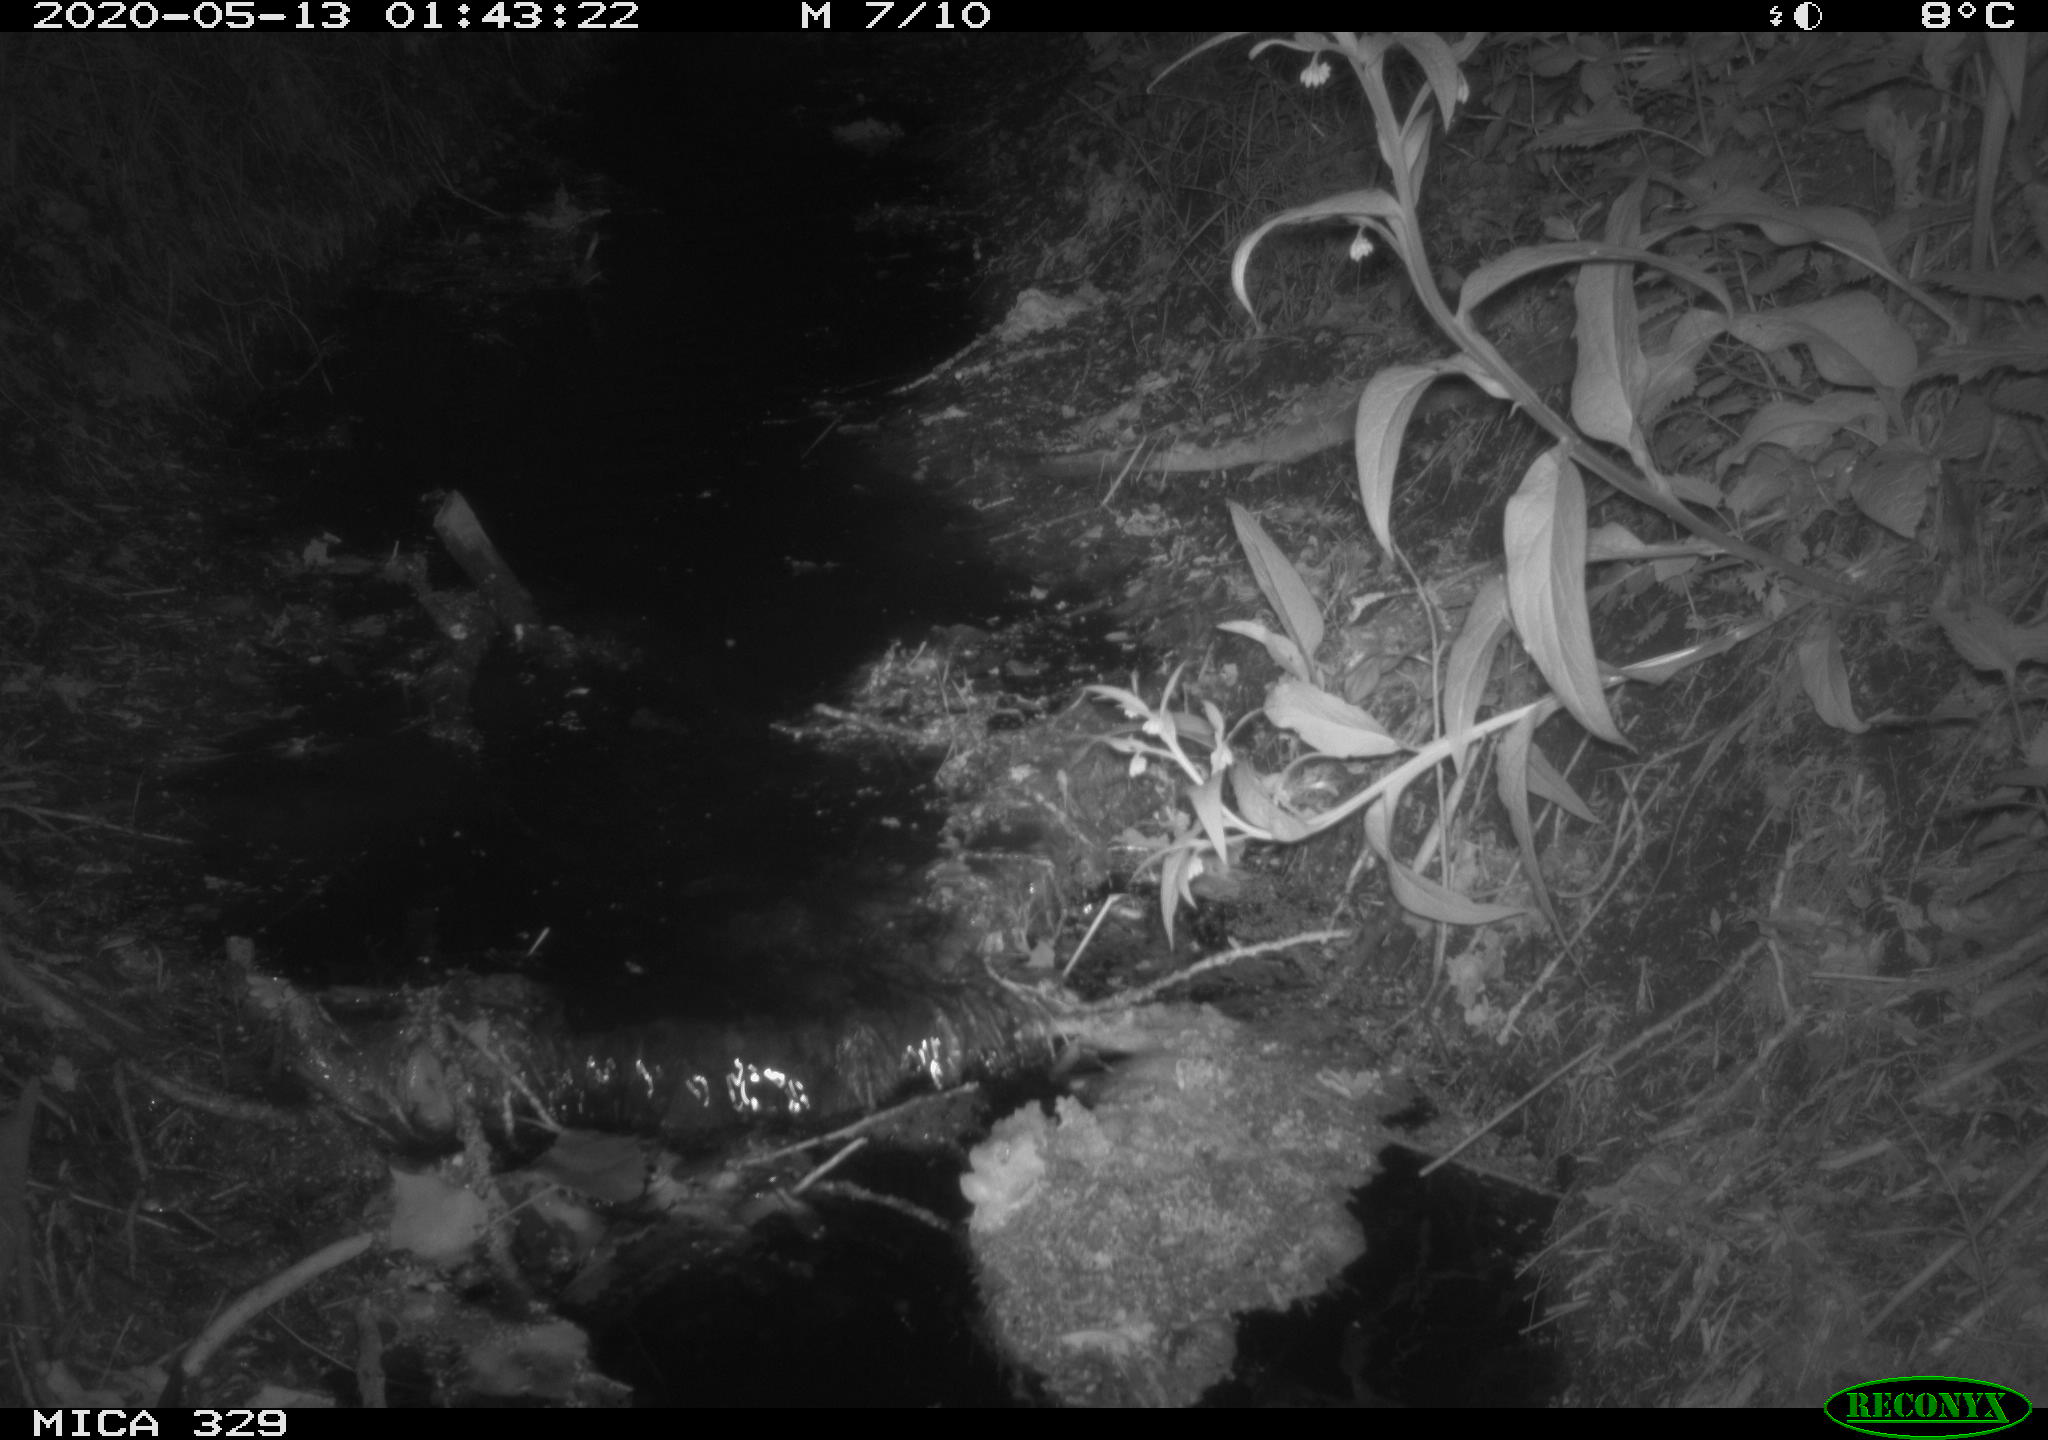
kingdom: Animalia
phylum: Chordata
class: Mammalia
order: Rodentia
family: Cricetidae
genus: Ondatra
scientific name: Ondatra zibethicus
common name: Muskrat
